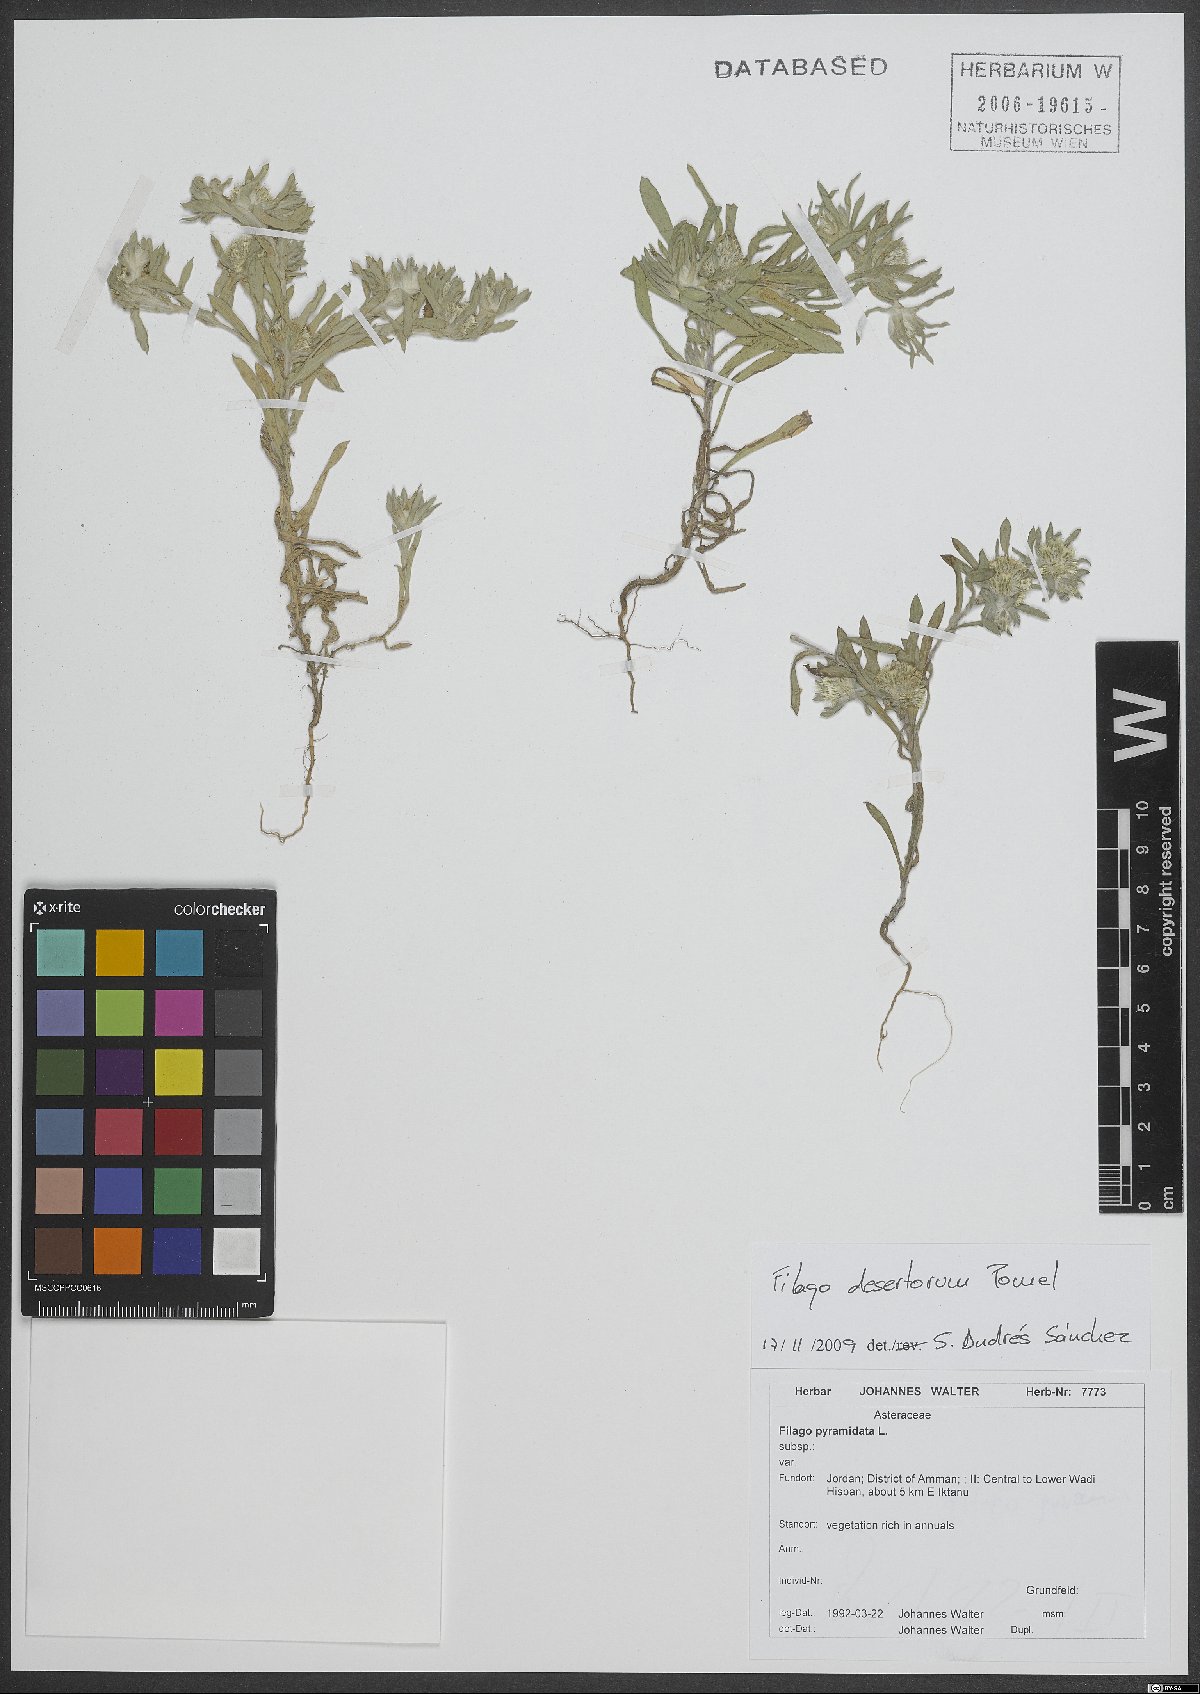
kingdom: Plantae
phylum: Tracheophyta
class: Magnoliopsida
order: Asterales
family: Asteraceae
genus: Filago
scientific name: Filago desertorum
